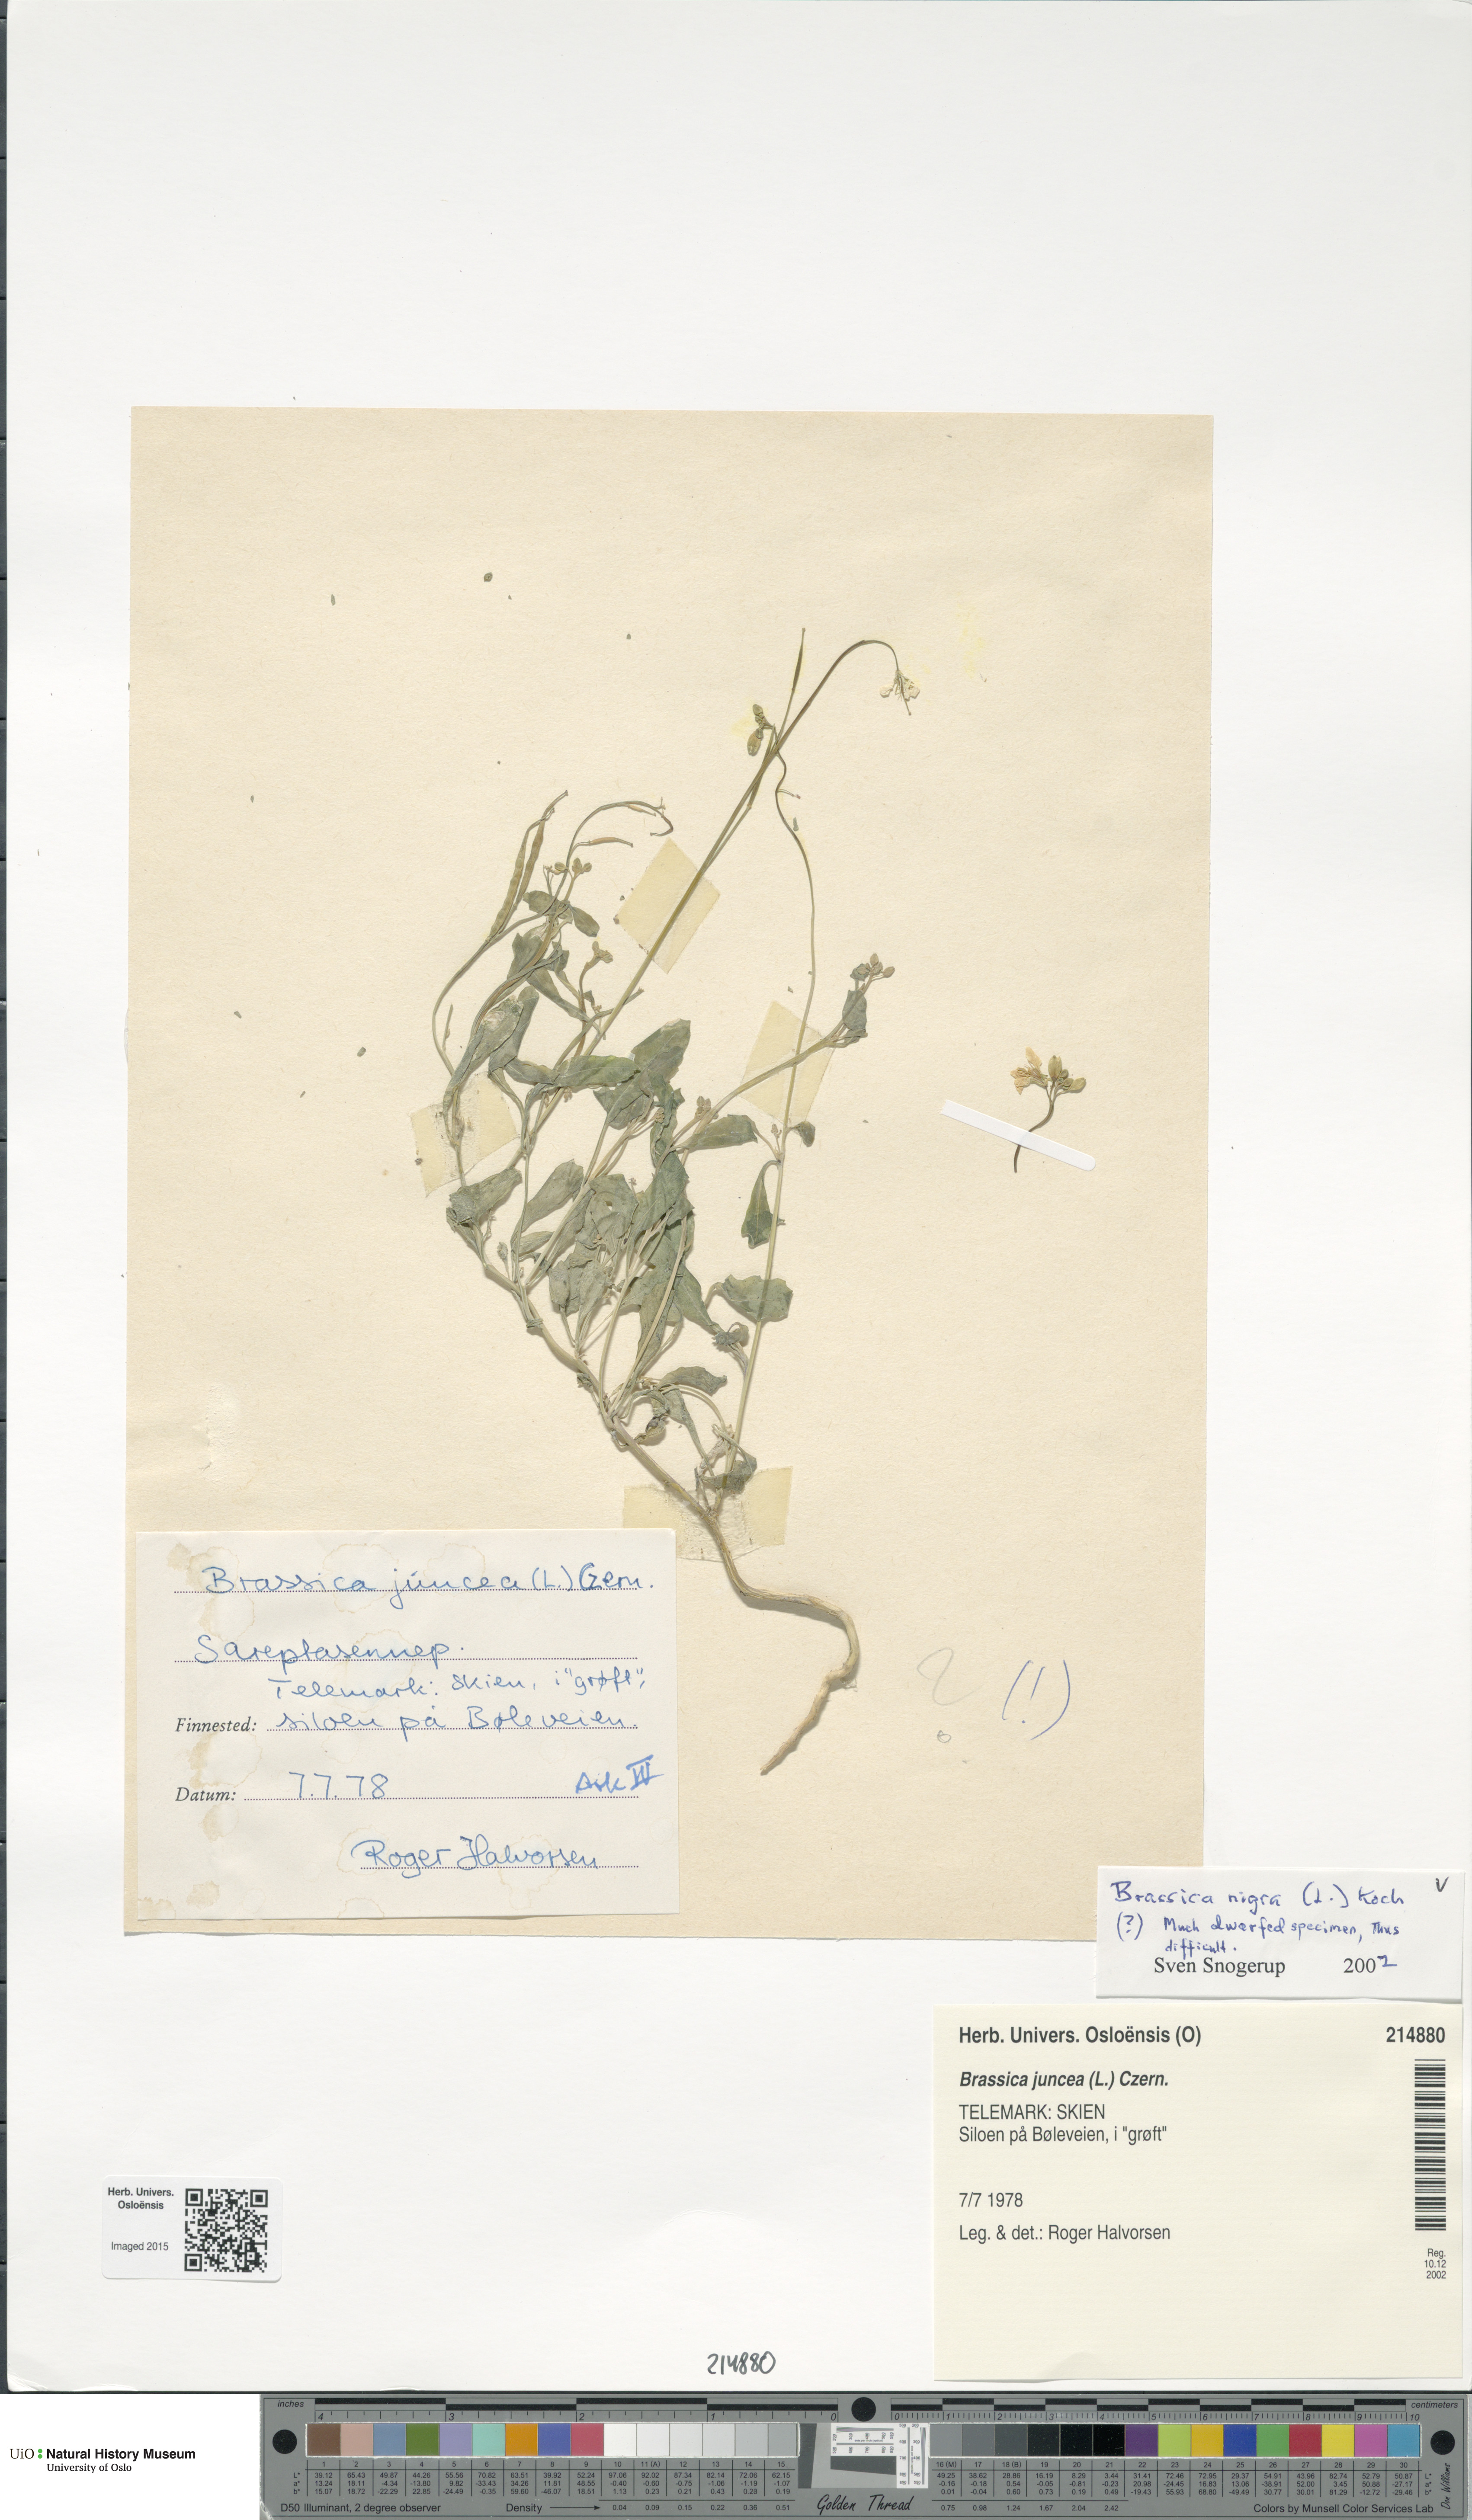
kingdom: Plantae
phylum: Tracheophyta
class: Magnoliopsida
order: Brassicales
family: Brassicaceae
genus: Brassica
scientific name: Brassica nigra
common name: Black mustard
